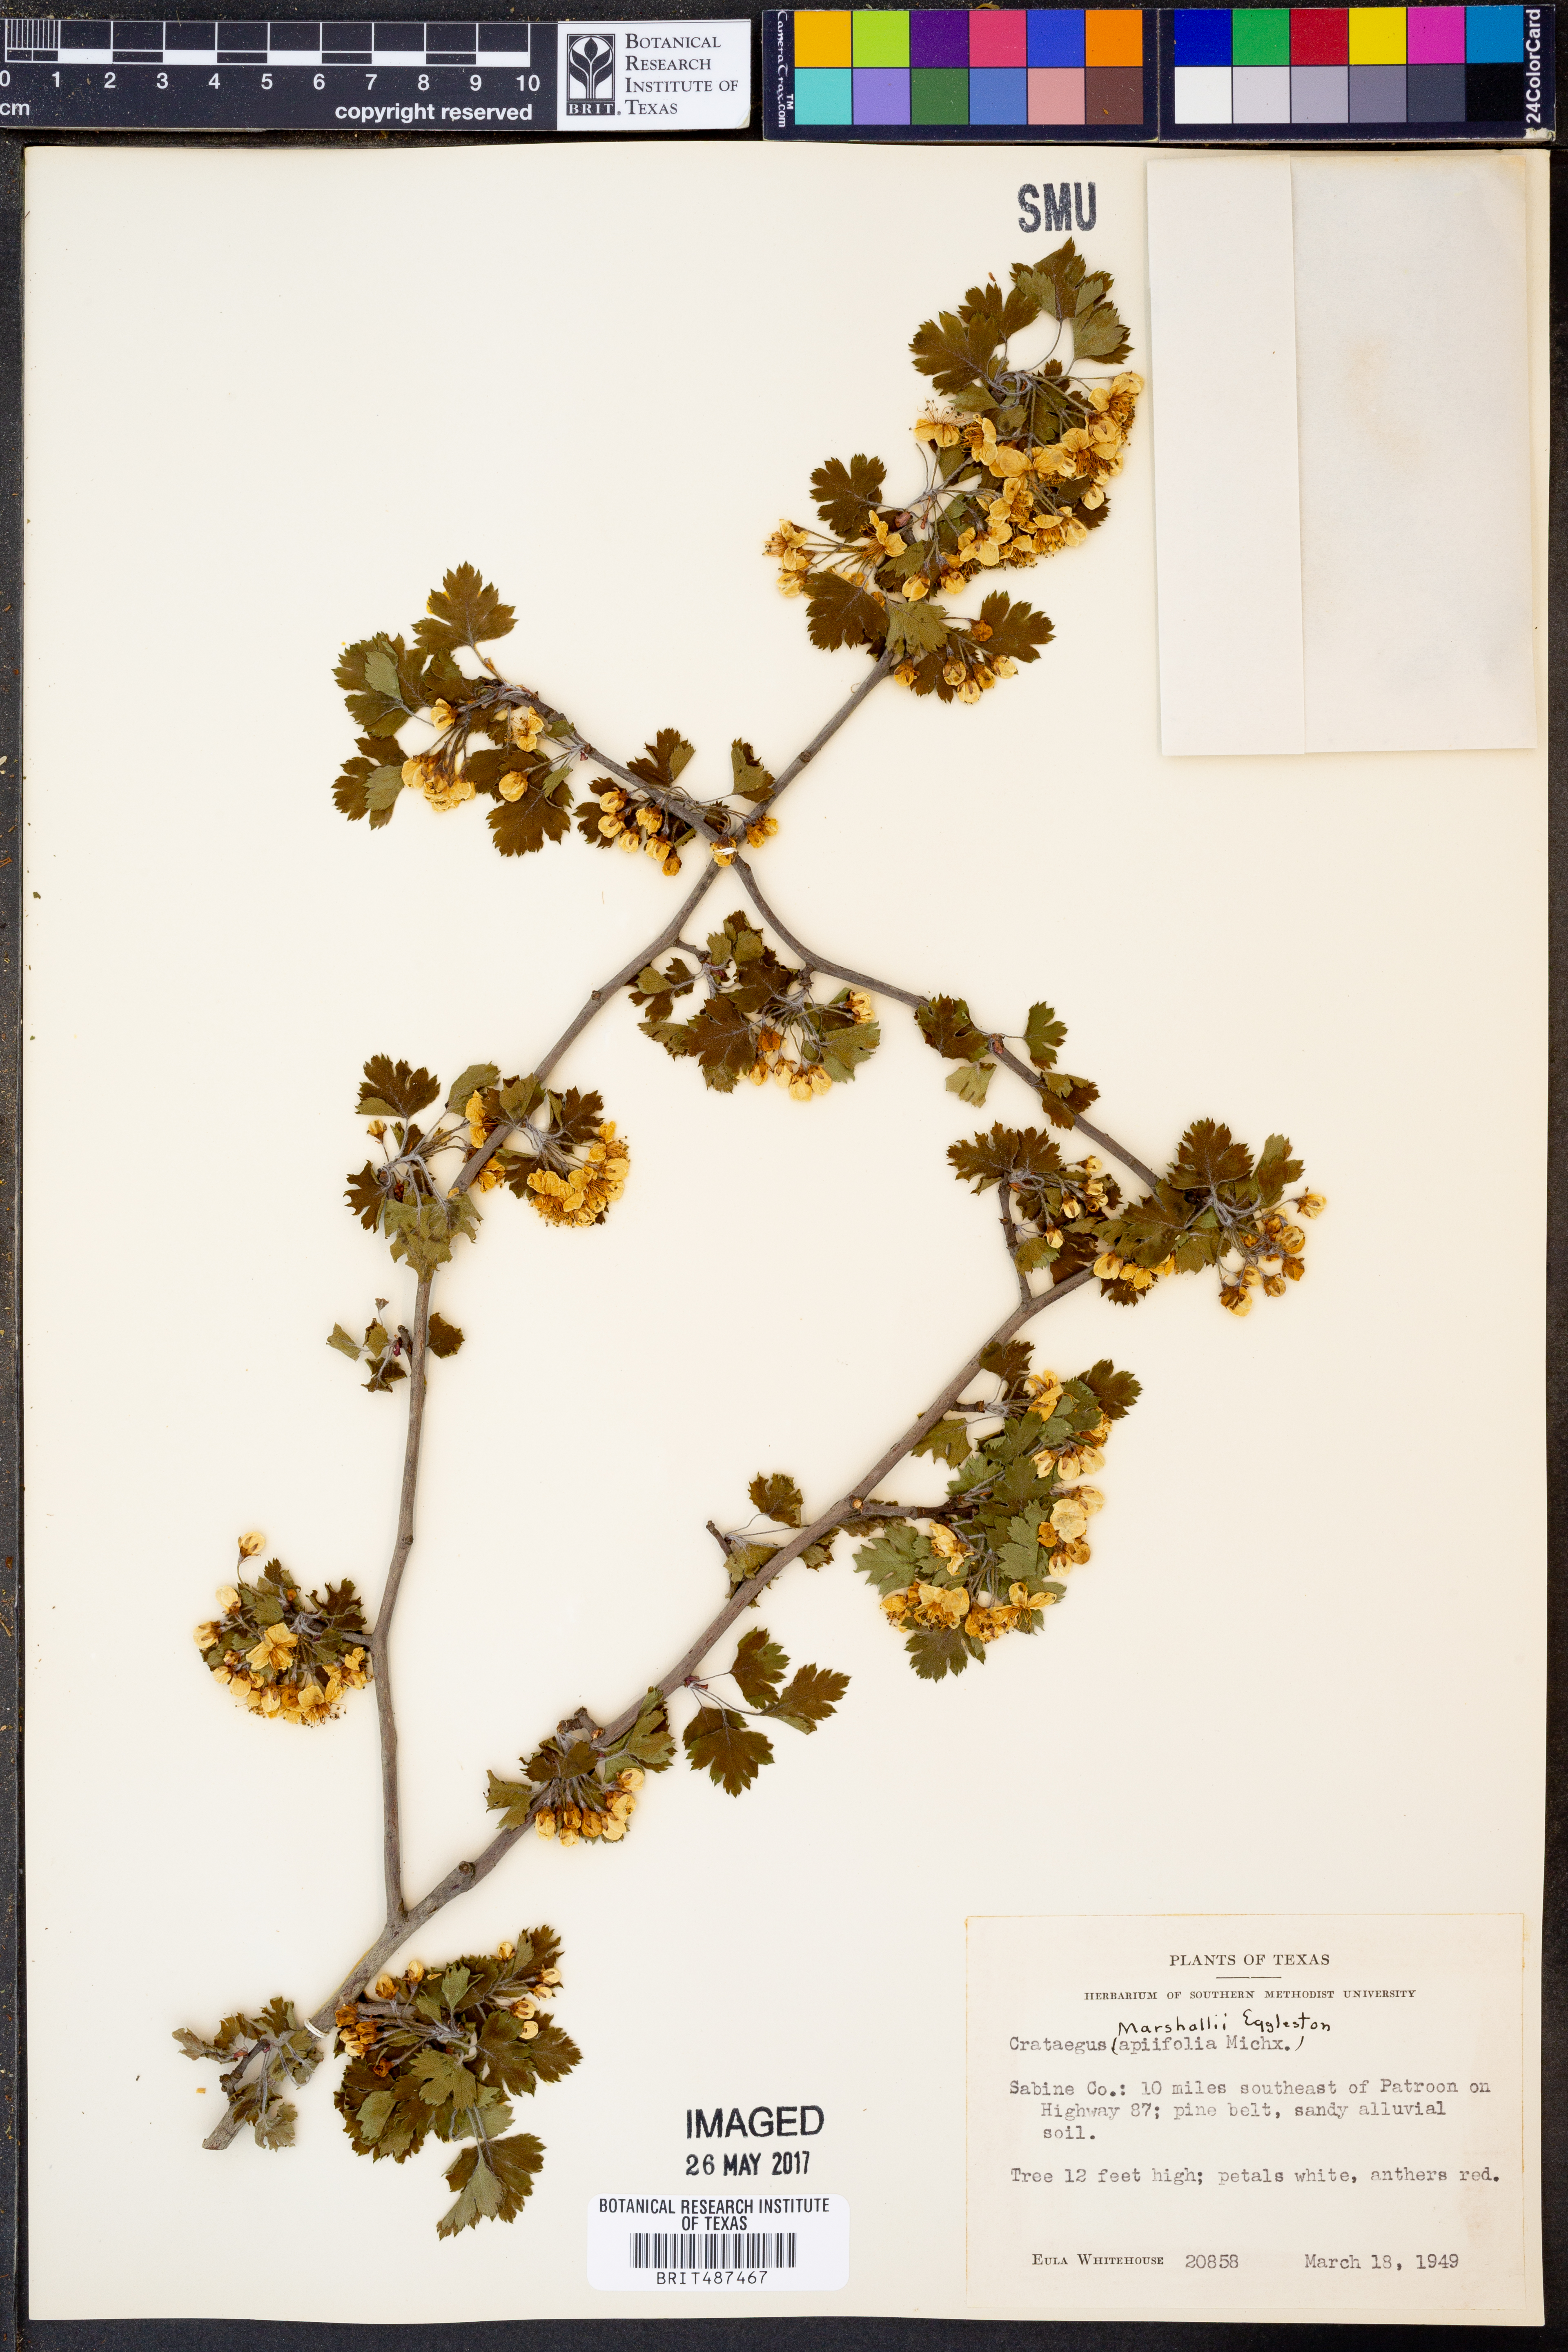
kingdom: Plantae
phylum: Tracheophyta
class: Magnoliopsida
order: Rosales
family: Rosaceae
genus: Crataegus
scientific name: Crataegus marshallii
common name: Parsley-hawthorn
